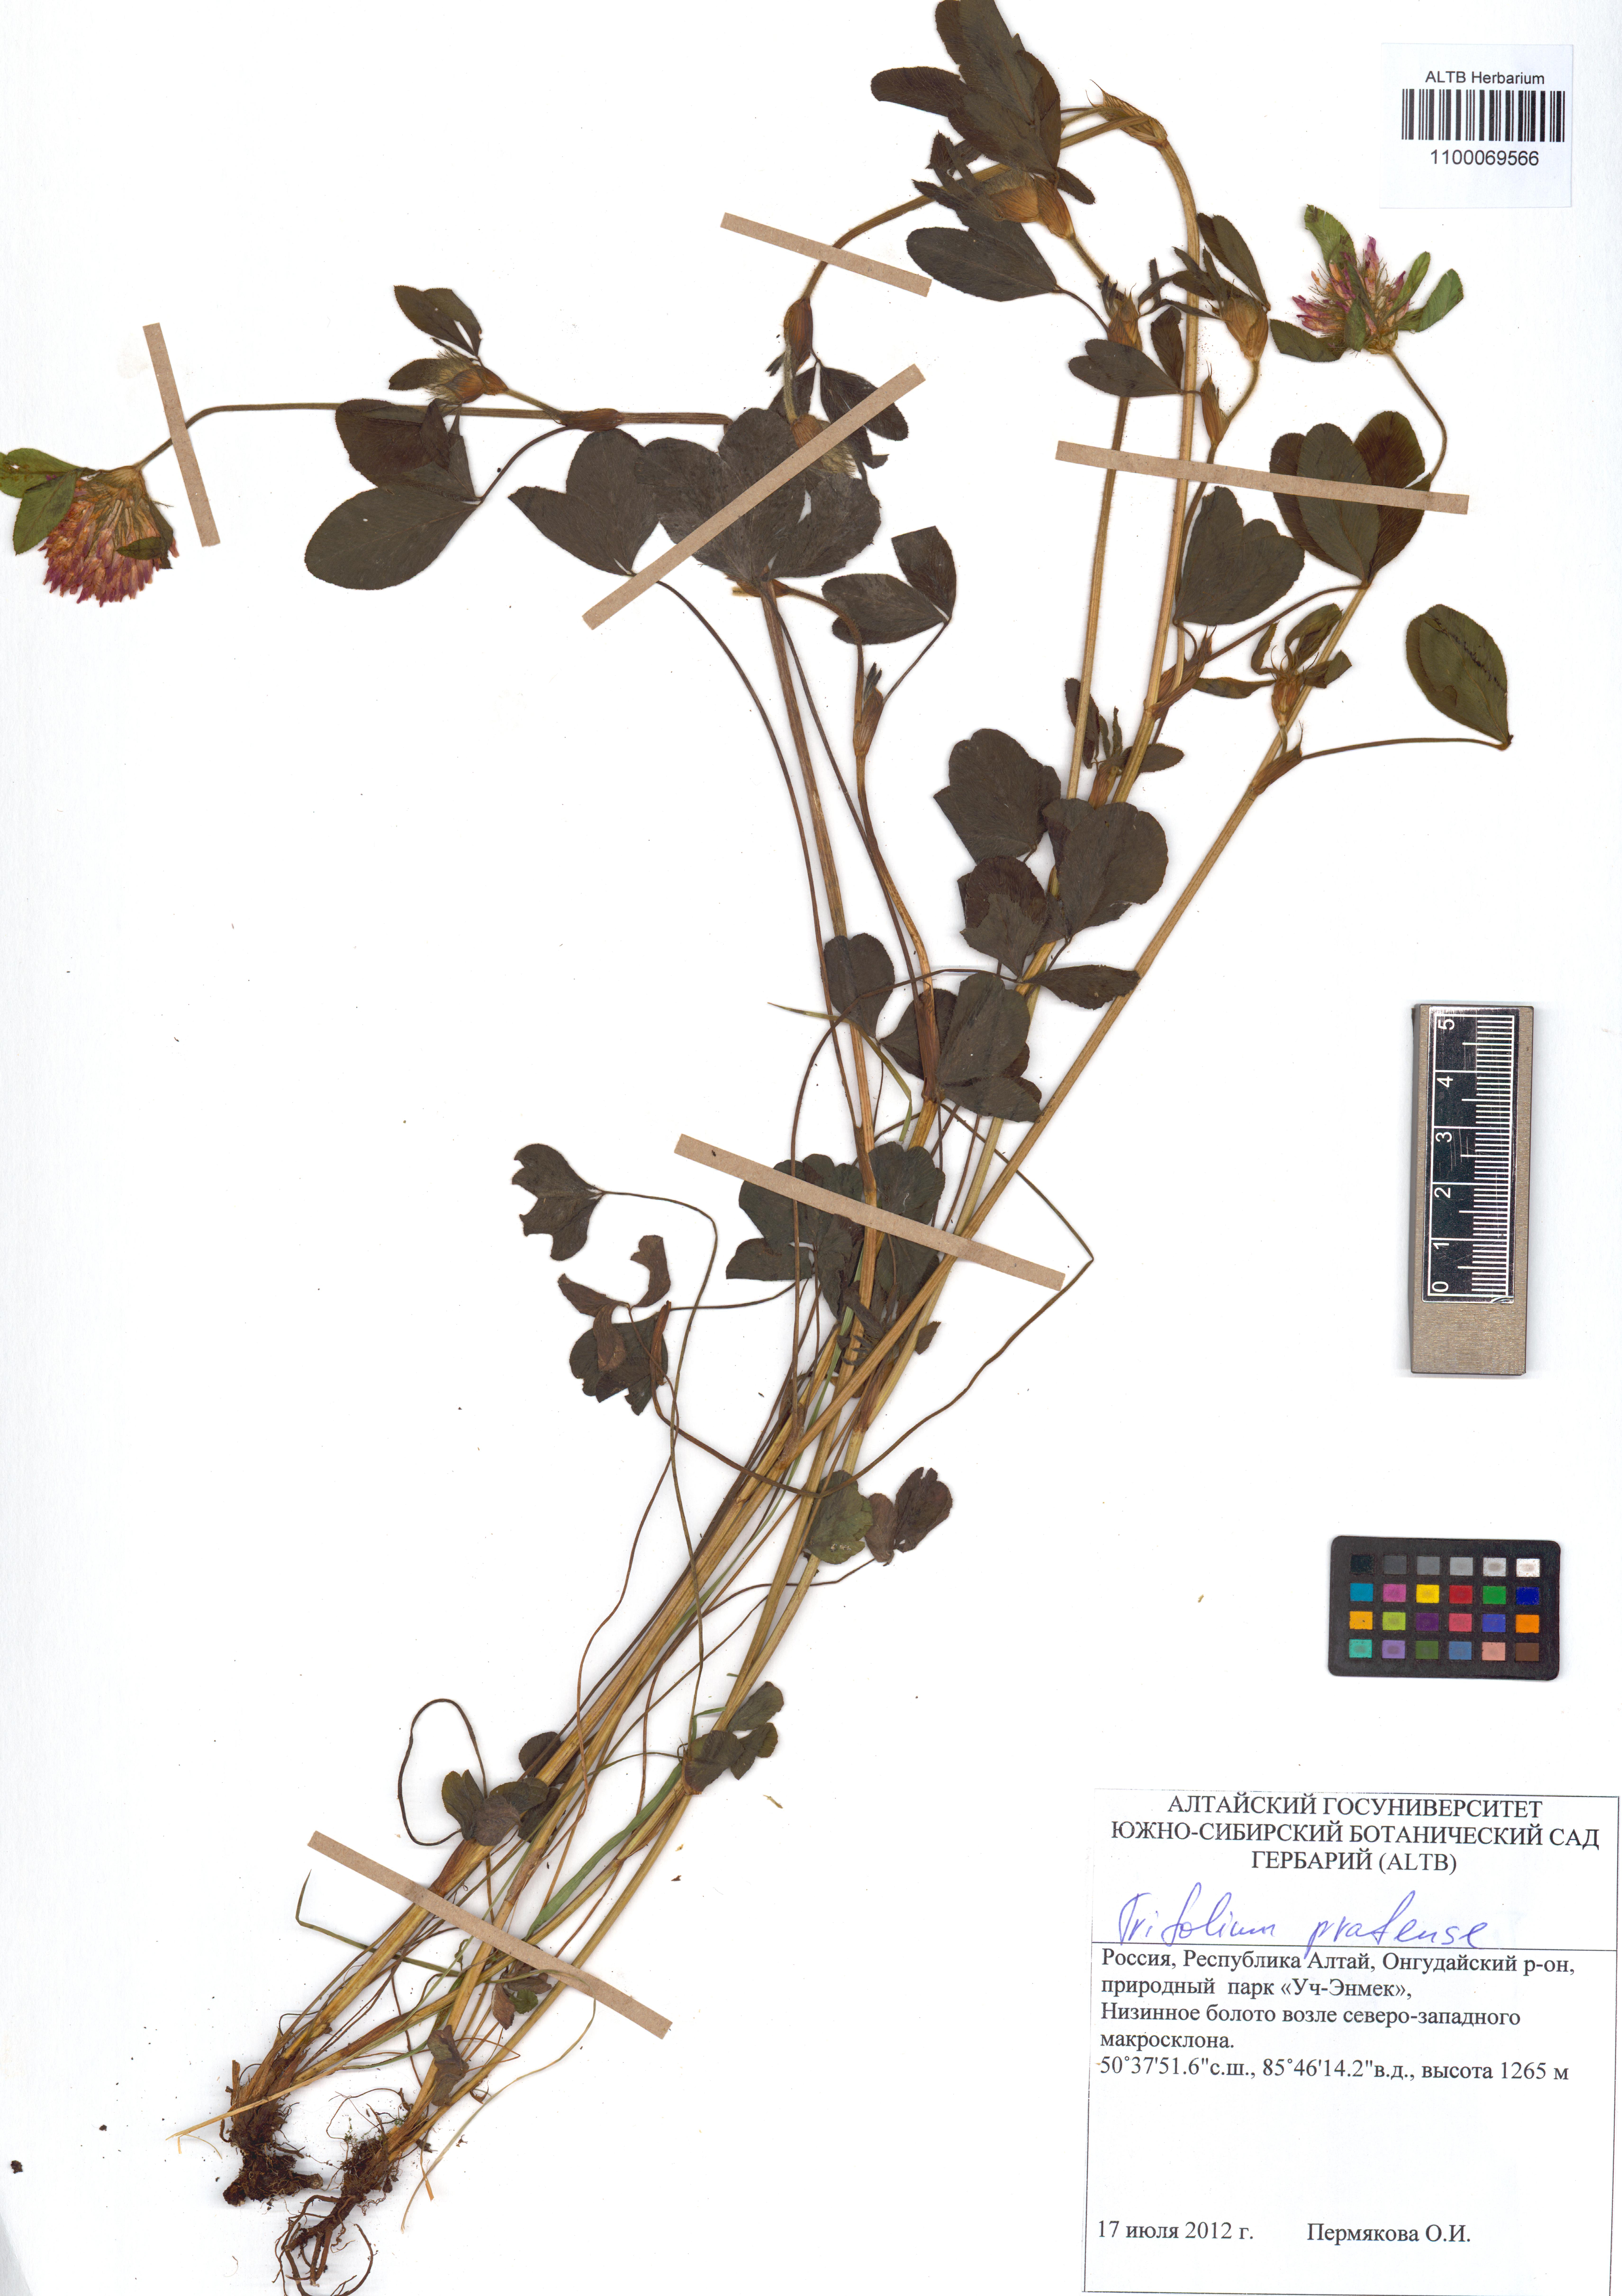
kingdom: Plantae
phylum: Tracheophyta
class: Magnoliopsida
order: Fabales
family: Fabaceae
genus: Trifolium
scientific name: Trifolium pratense
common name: Red clover
